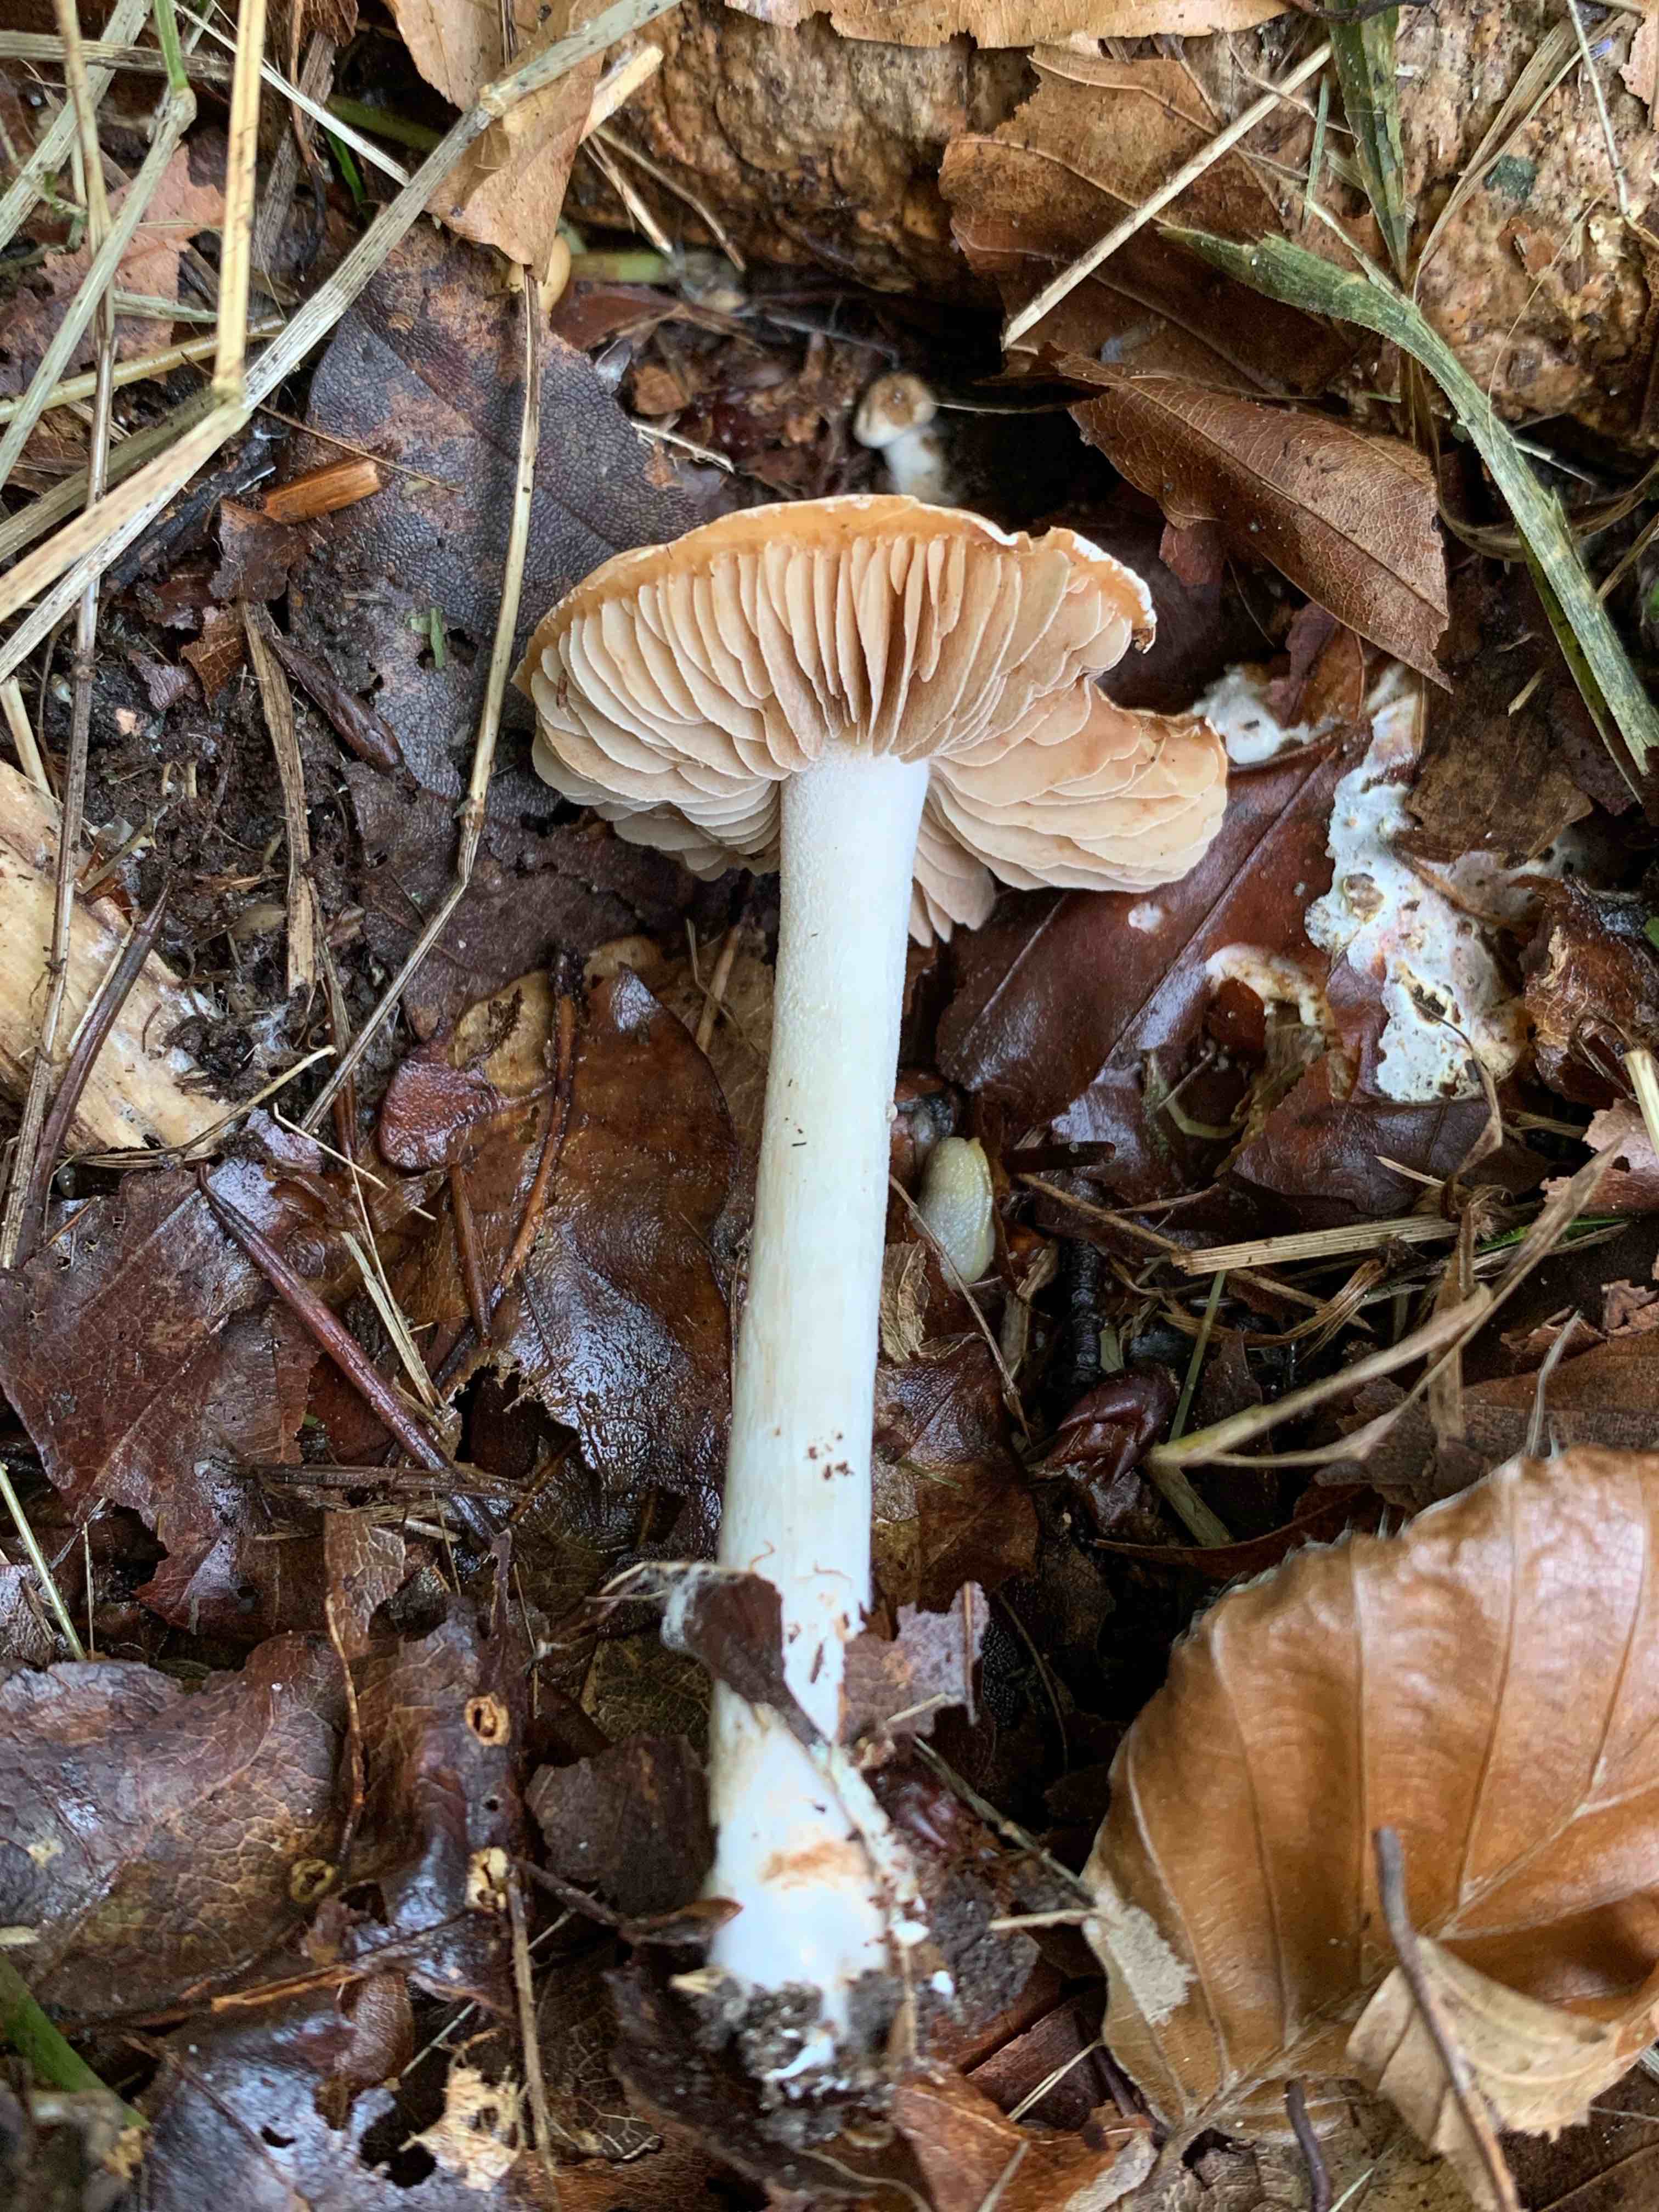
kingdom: Fungi
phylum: Basidiomycota
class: Agaricomycetes
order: Agaricales
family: Hymenogastraceae
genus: Hebeloma
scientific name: Hebeloma
